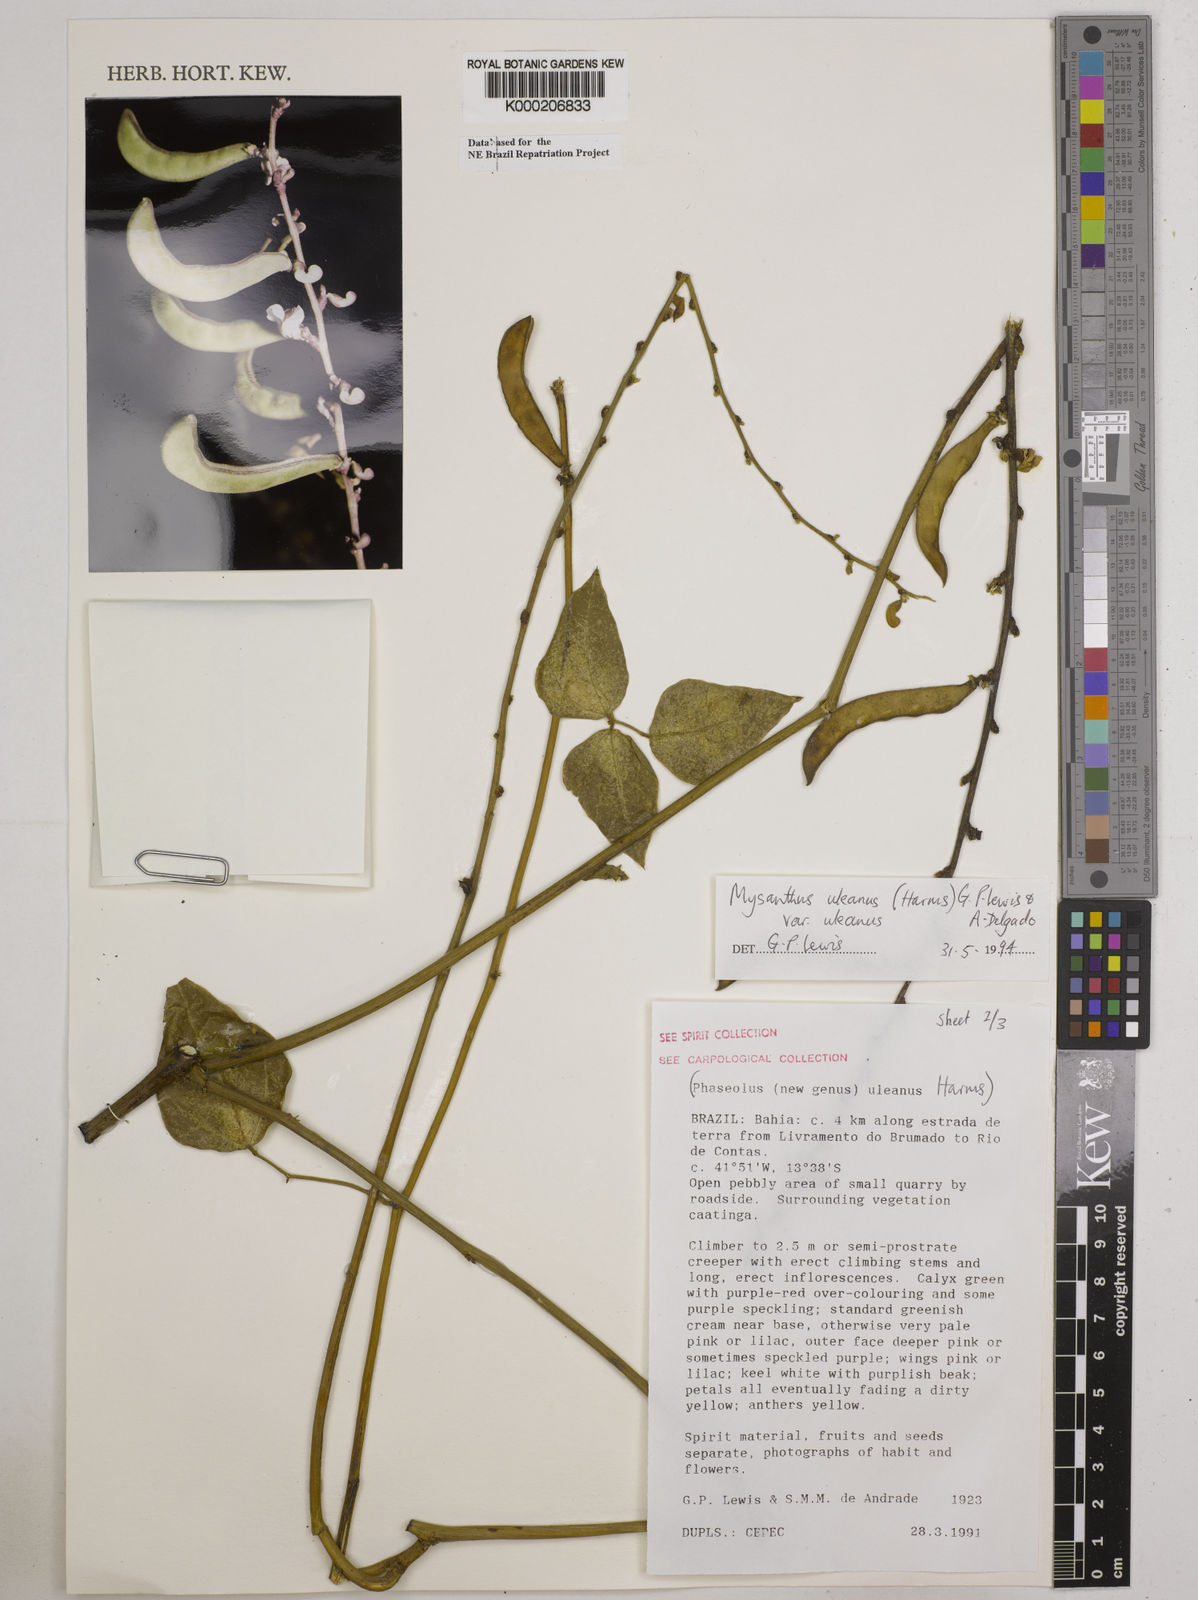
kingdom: Plantae
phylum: Tracheophyta
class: Magnoliopsida
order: Fabales
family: Fabaceae
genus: Mysanthus
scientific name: Mysanthus uleanus
